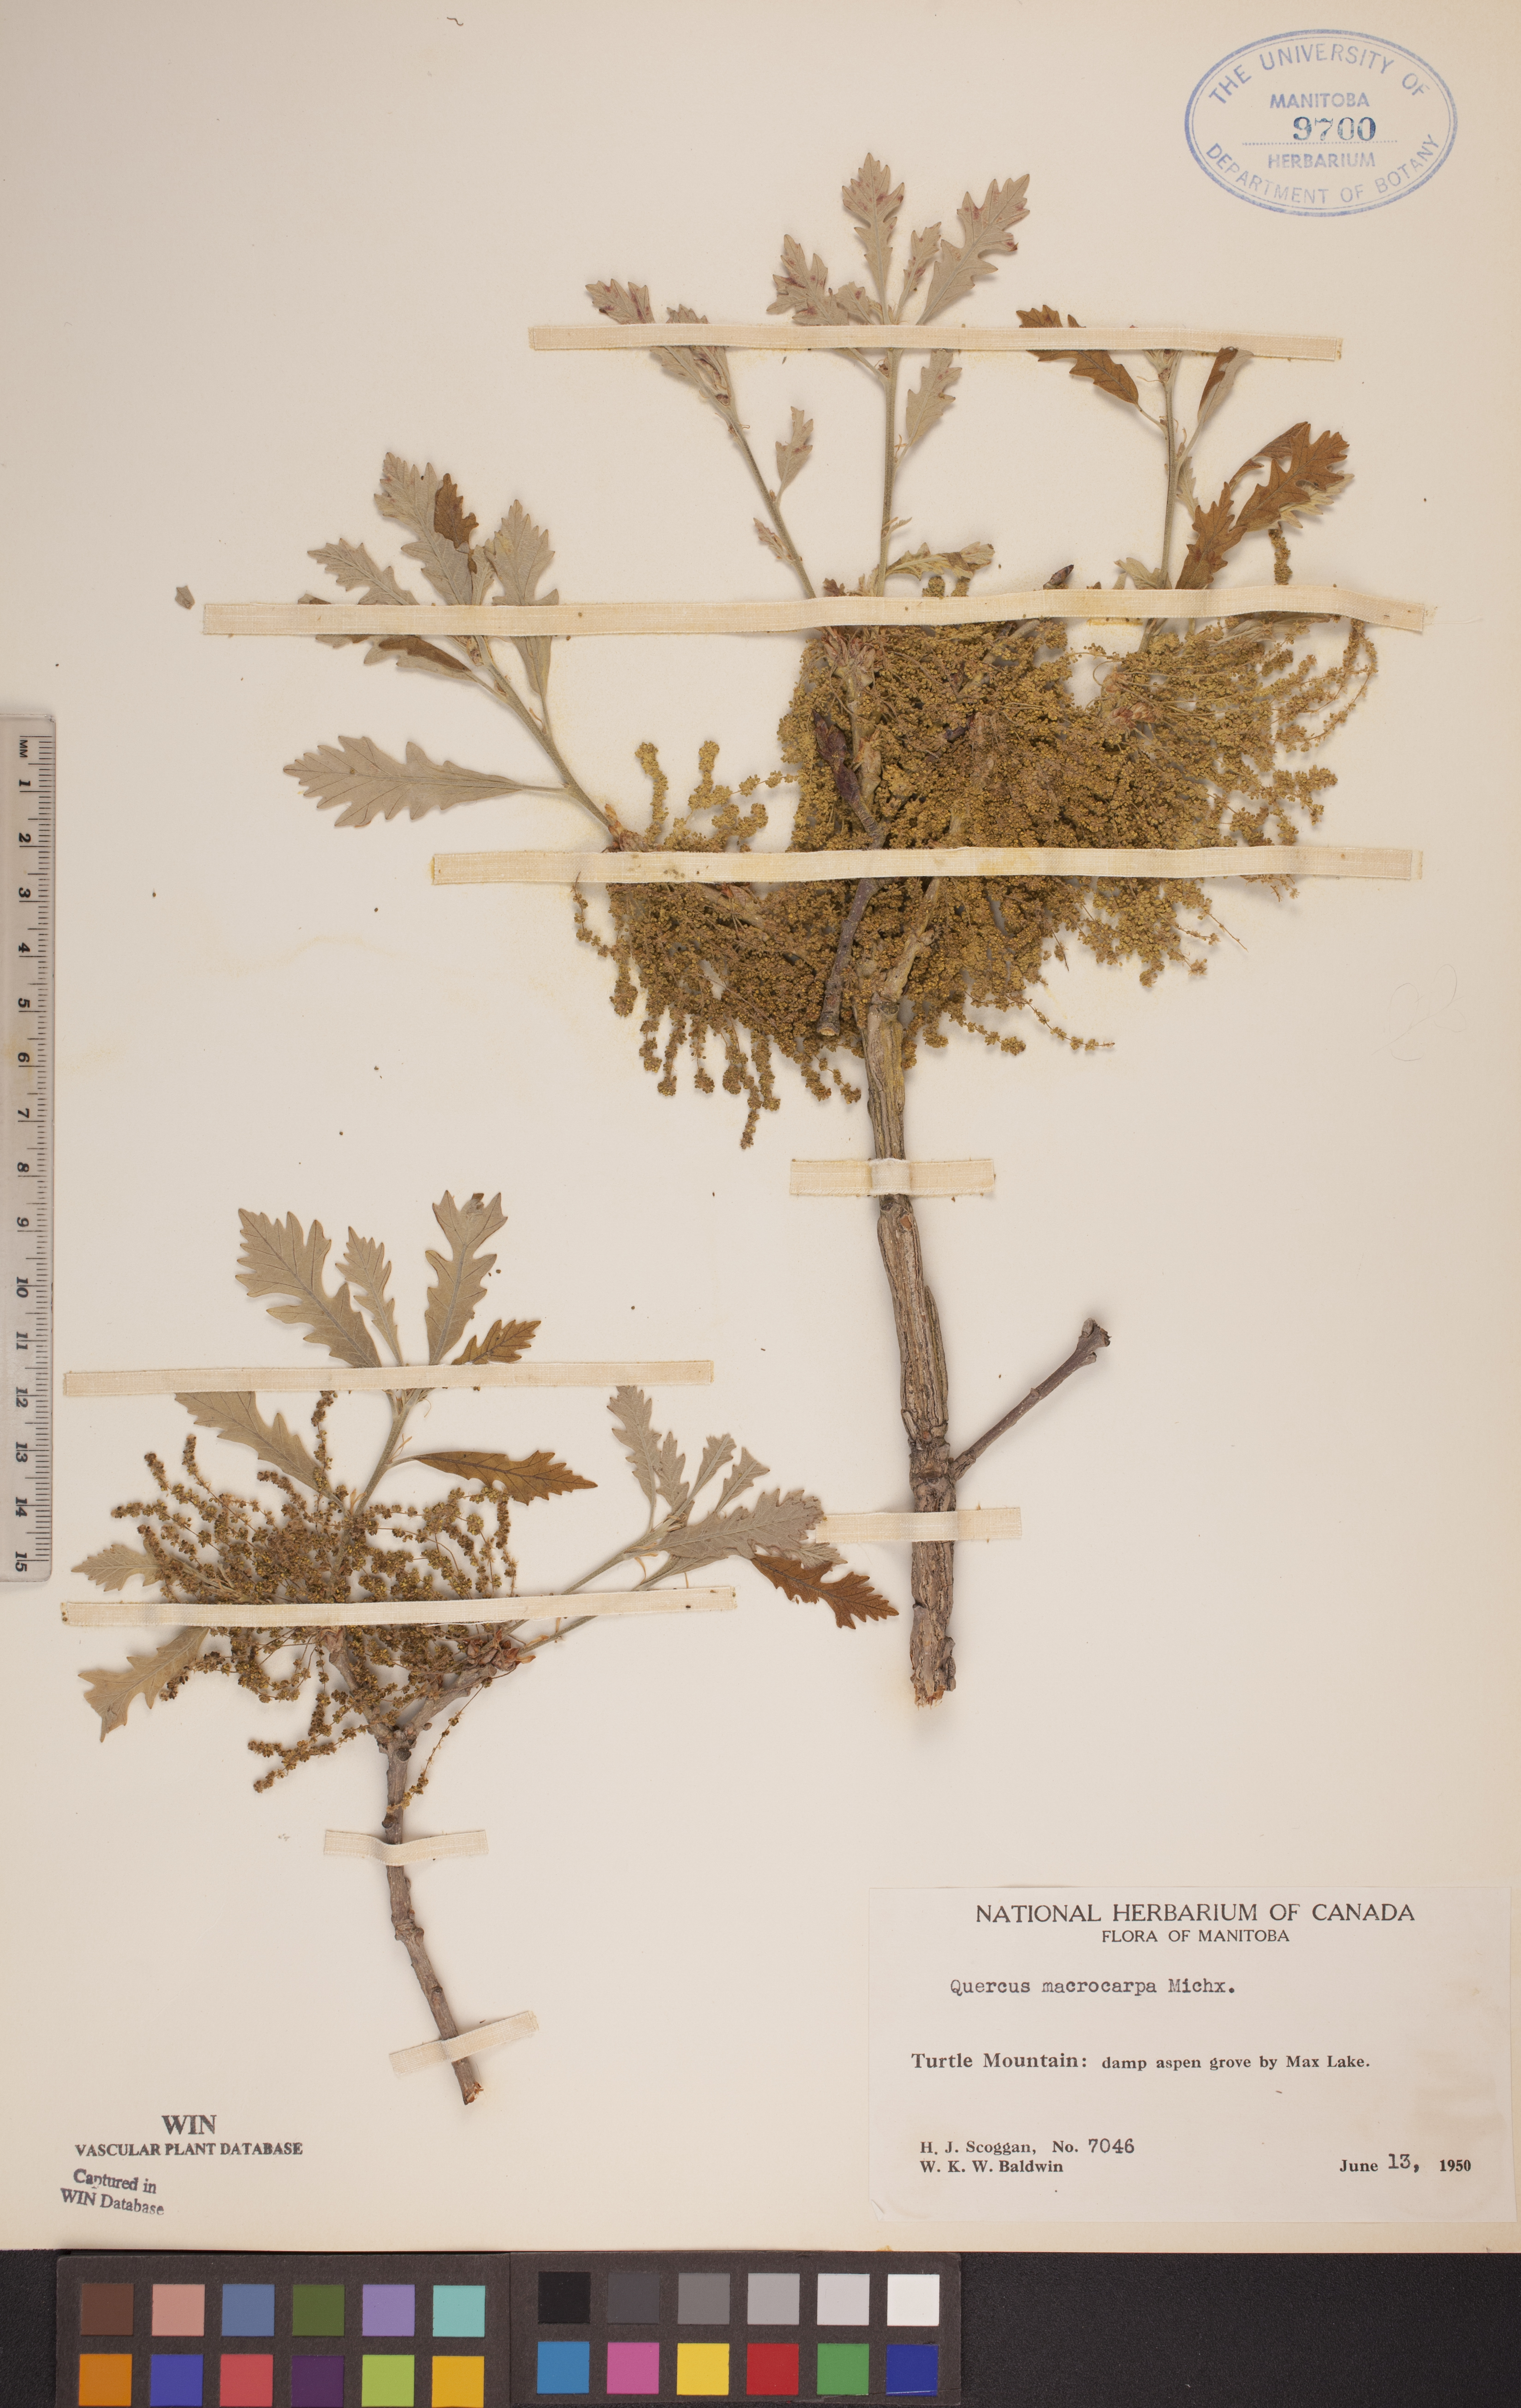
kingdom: Plantae
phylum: Tracheophyta
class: Magnoliopsida
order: Fagales
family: Fagaceae
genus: Quercus
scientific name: Quercus macrocarpa
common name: Bur oak
